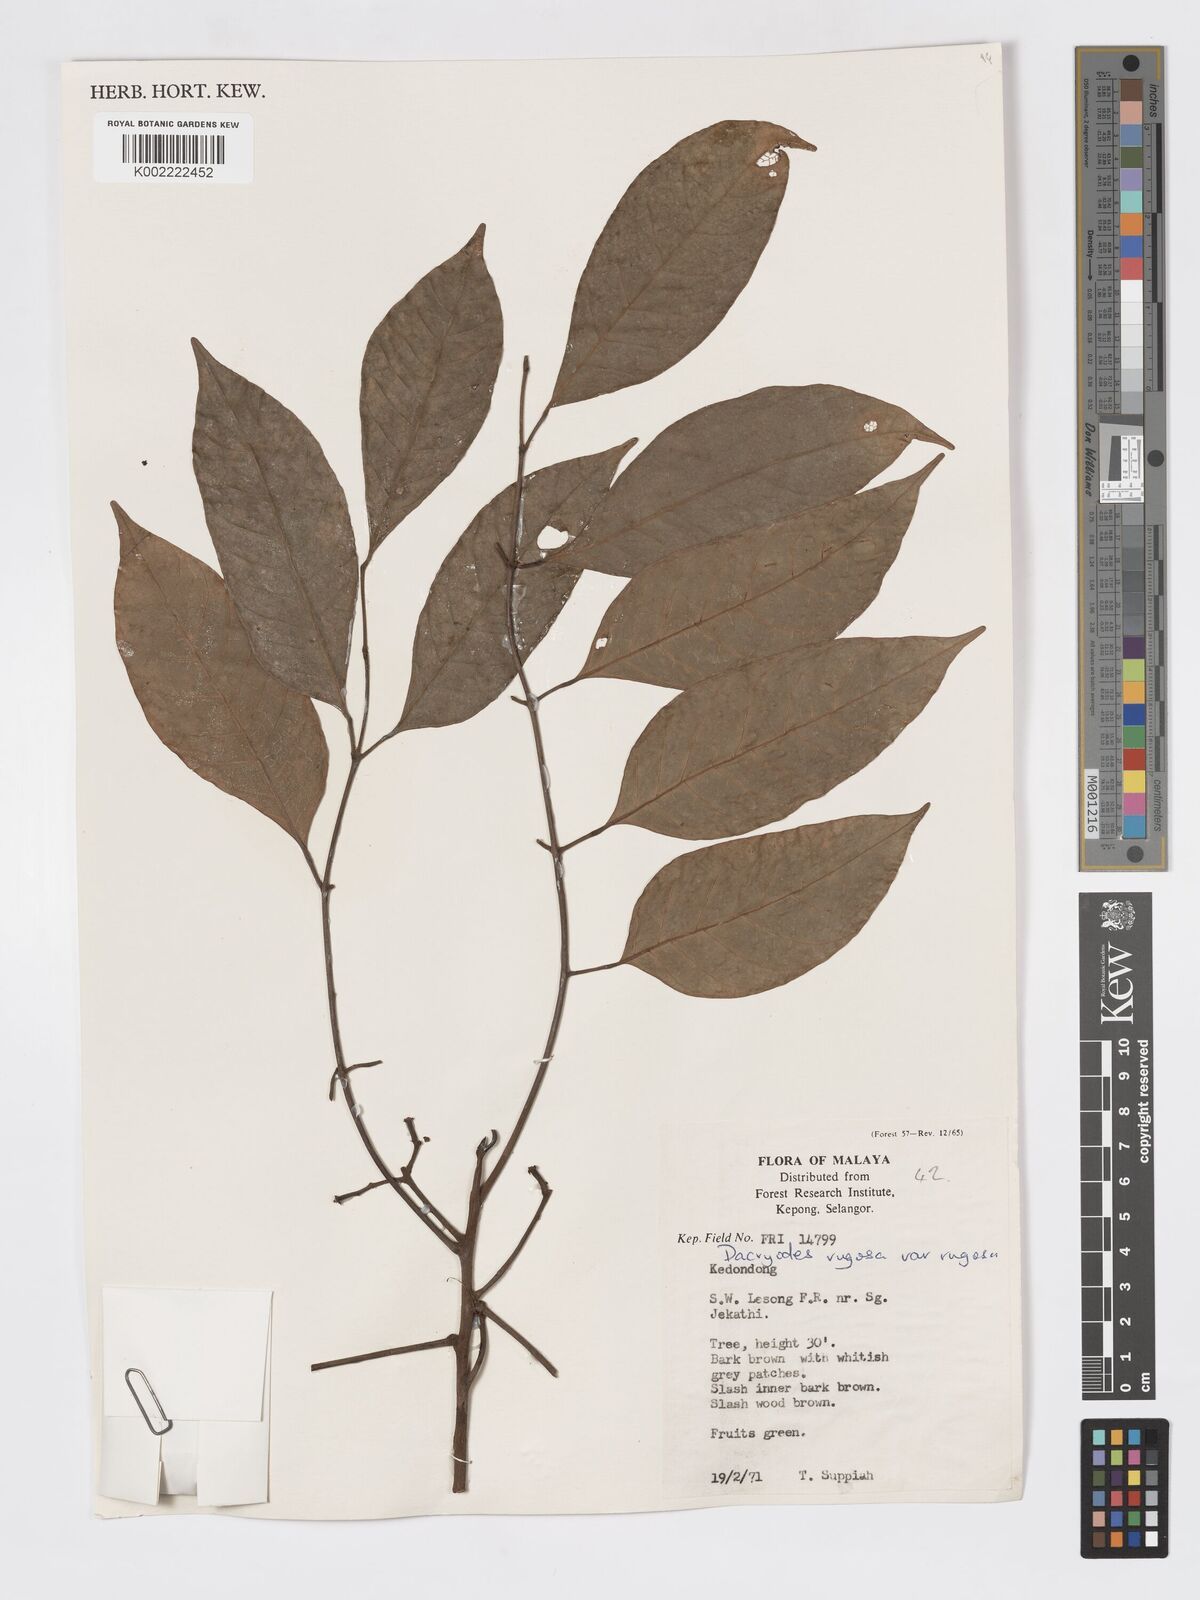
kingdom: Plantae
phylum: Tracheophyta
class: Magnoliopsida
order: Sapindales
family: Burseraceae
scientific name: Burseraceae
